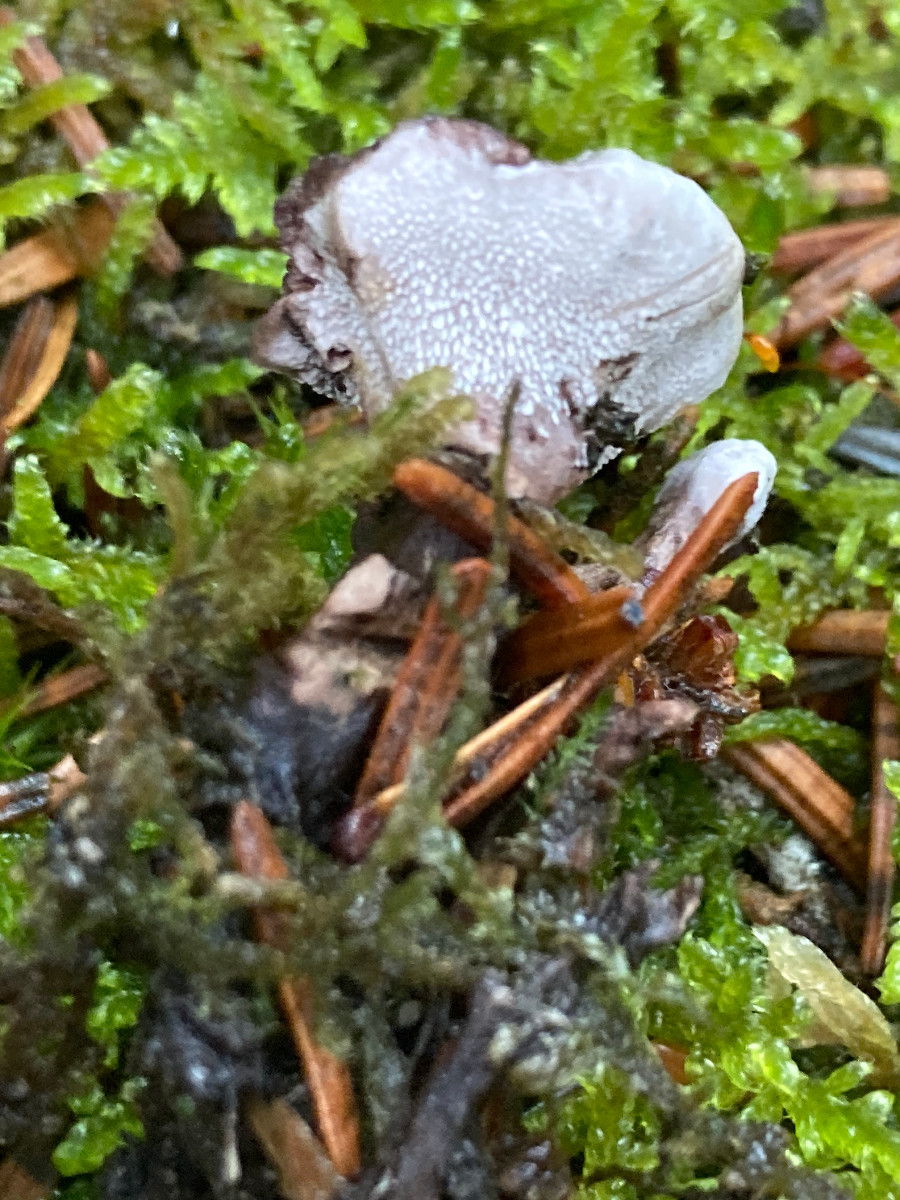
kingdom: Fungi
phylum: Basidiomycota
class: Agaricomycetes
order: Thelephorales
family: Thelephoraceae
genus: Phellodon
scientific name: Phellodon tomentosus
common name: vellugtende duftpigsvamp
